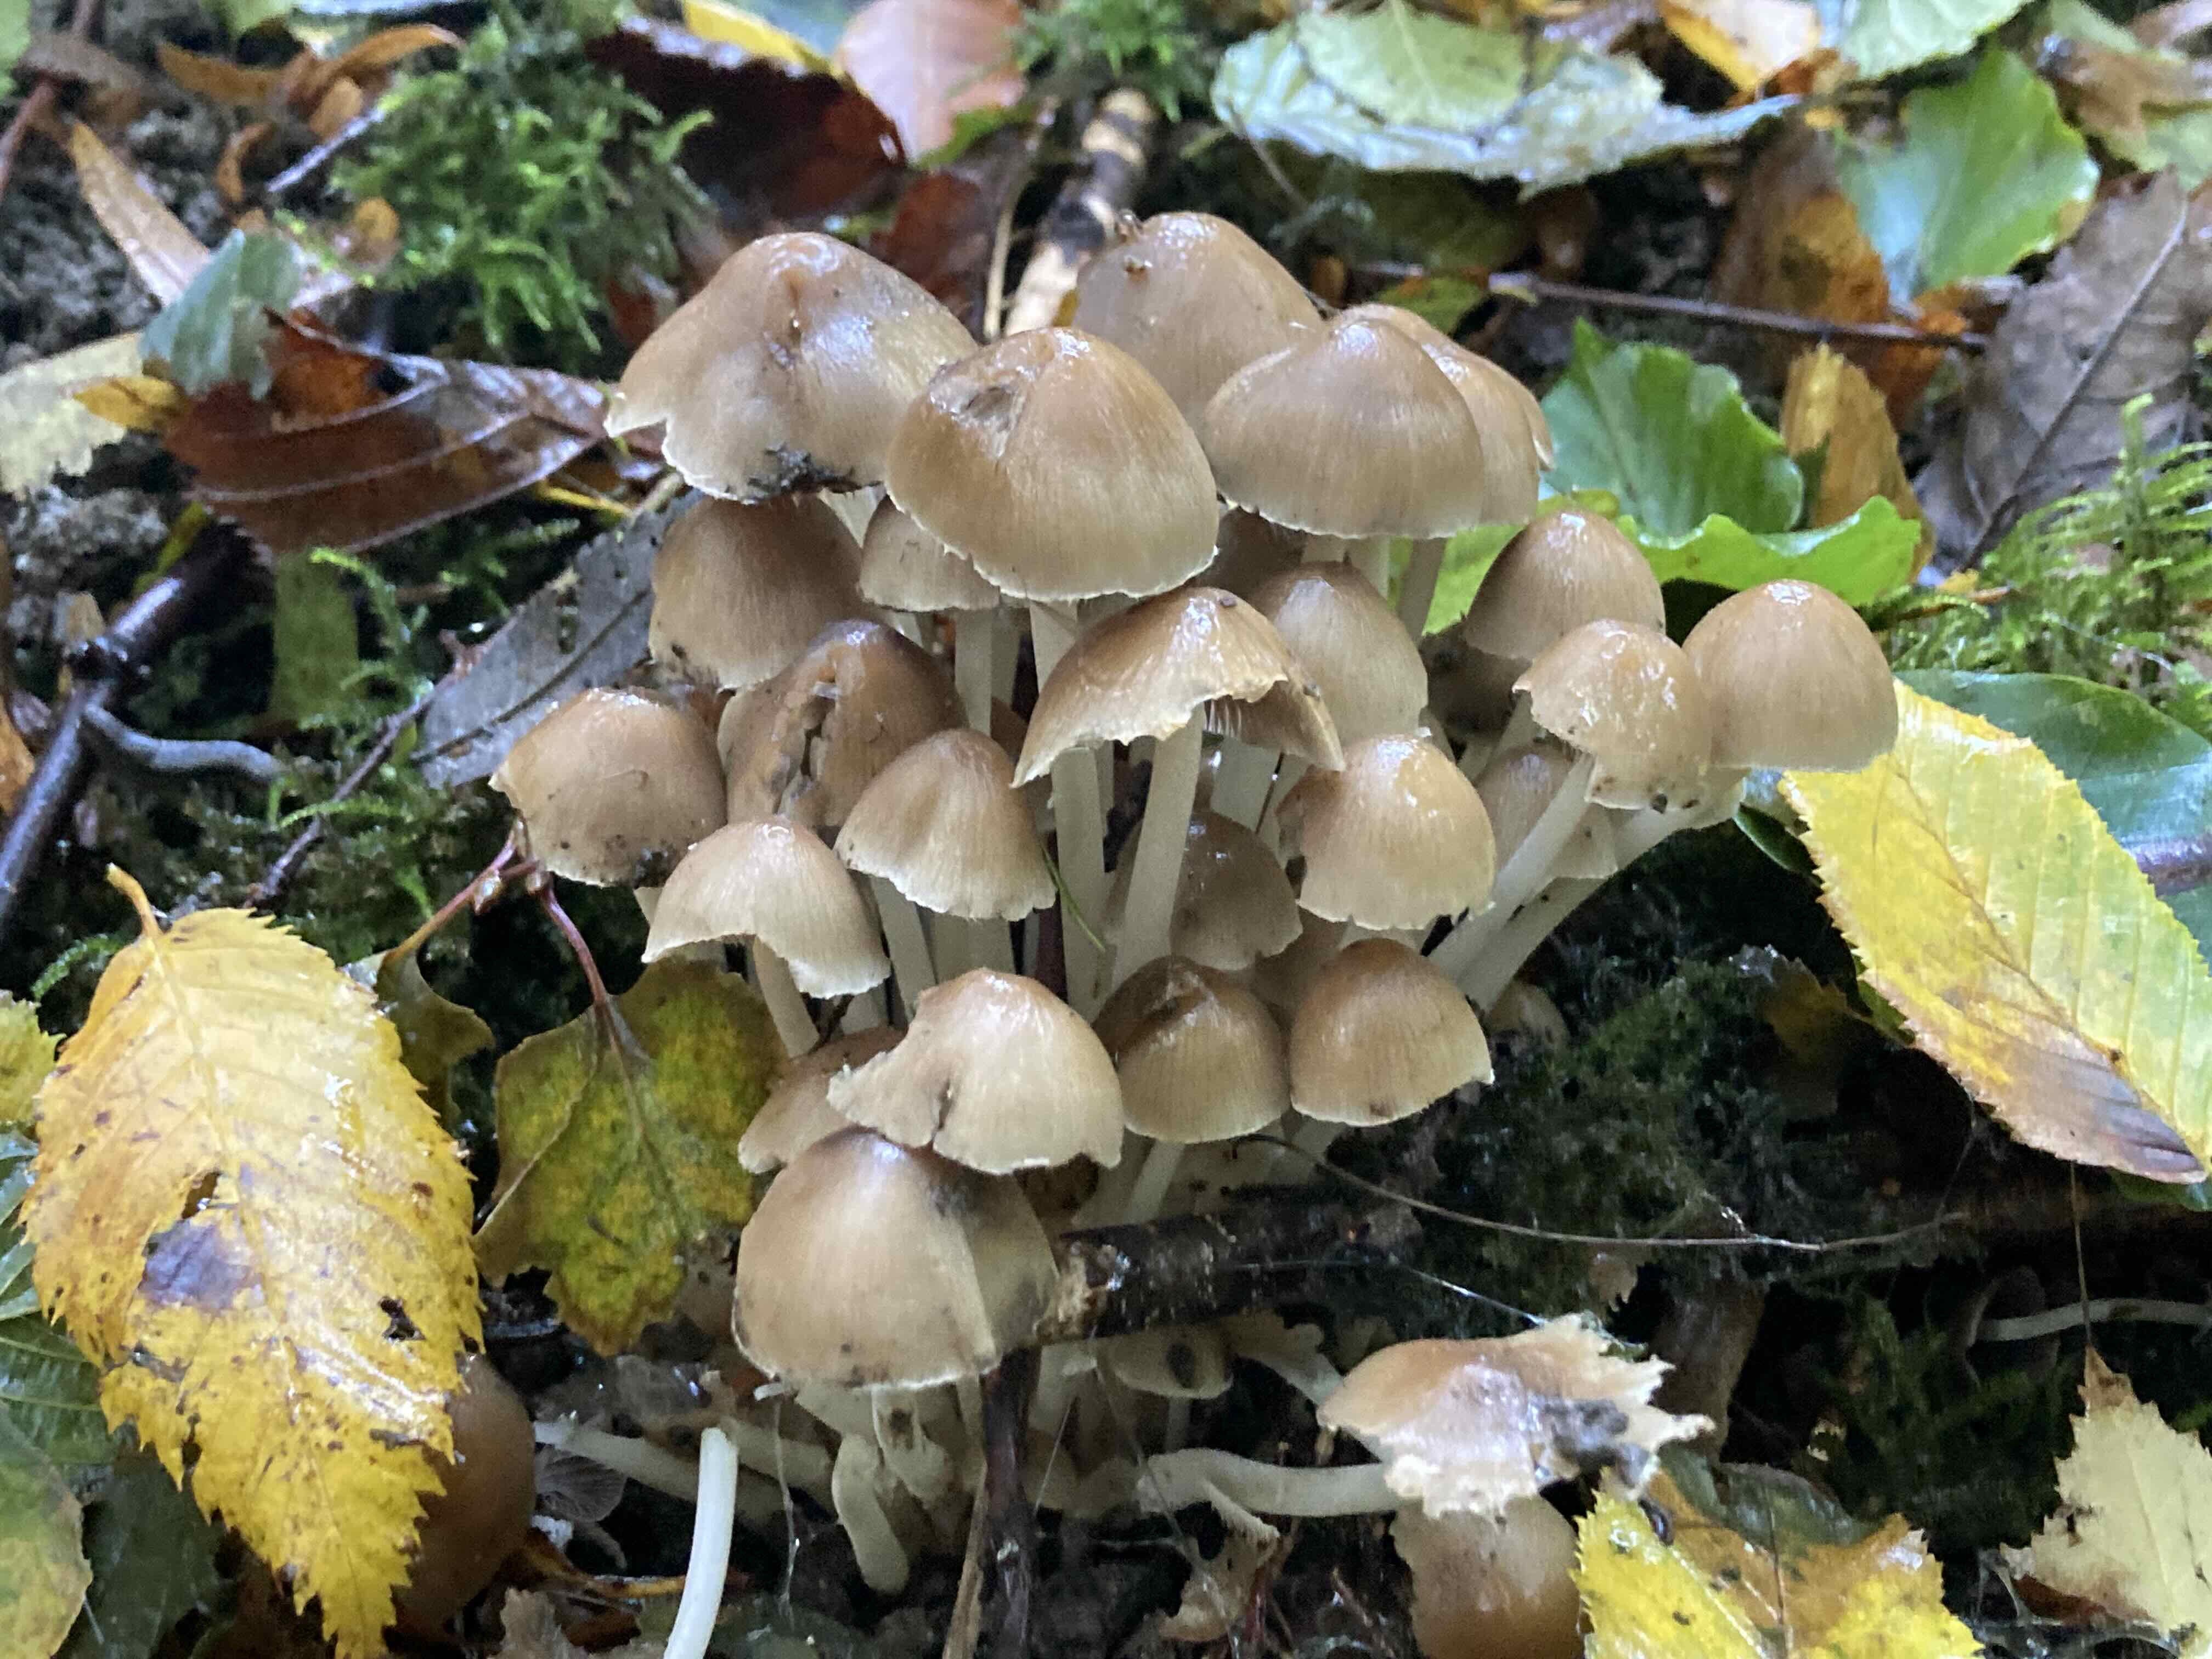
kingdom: Fungi
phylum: Basidiomycota
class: Agaricomycetes
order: Agaricales
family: Psathyrellaceae
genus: Psathyrella
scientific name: Psathyrella
